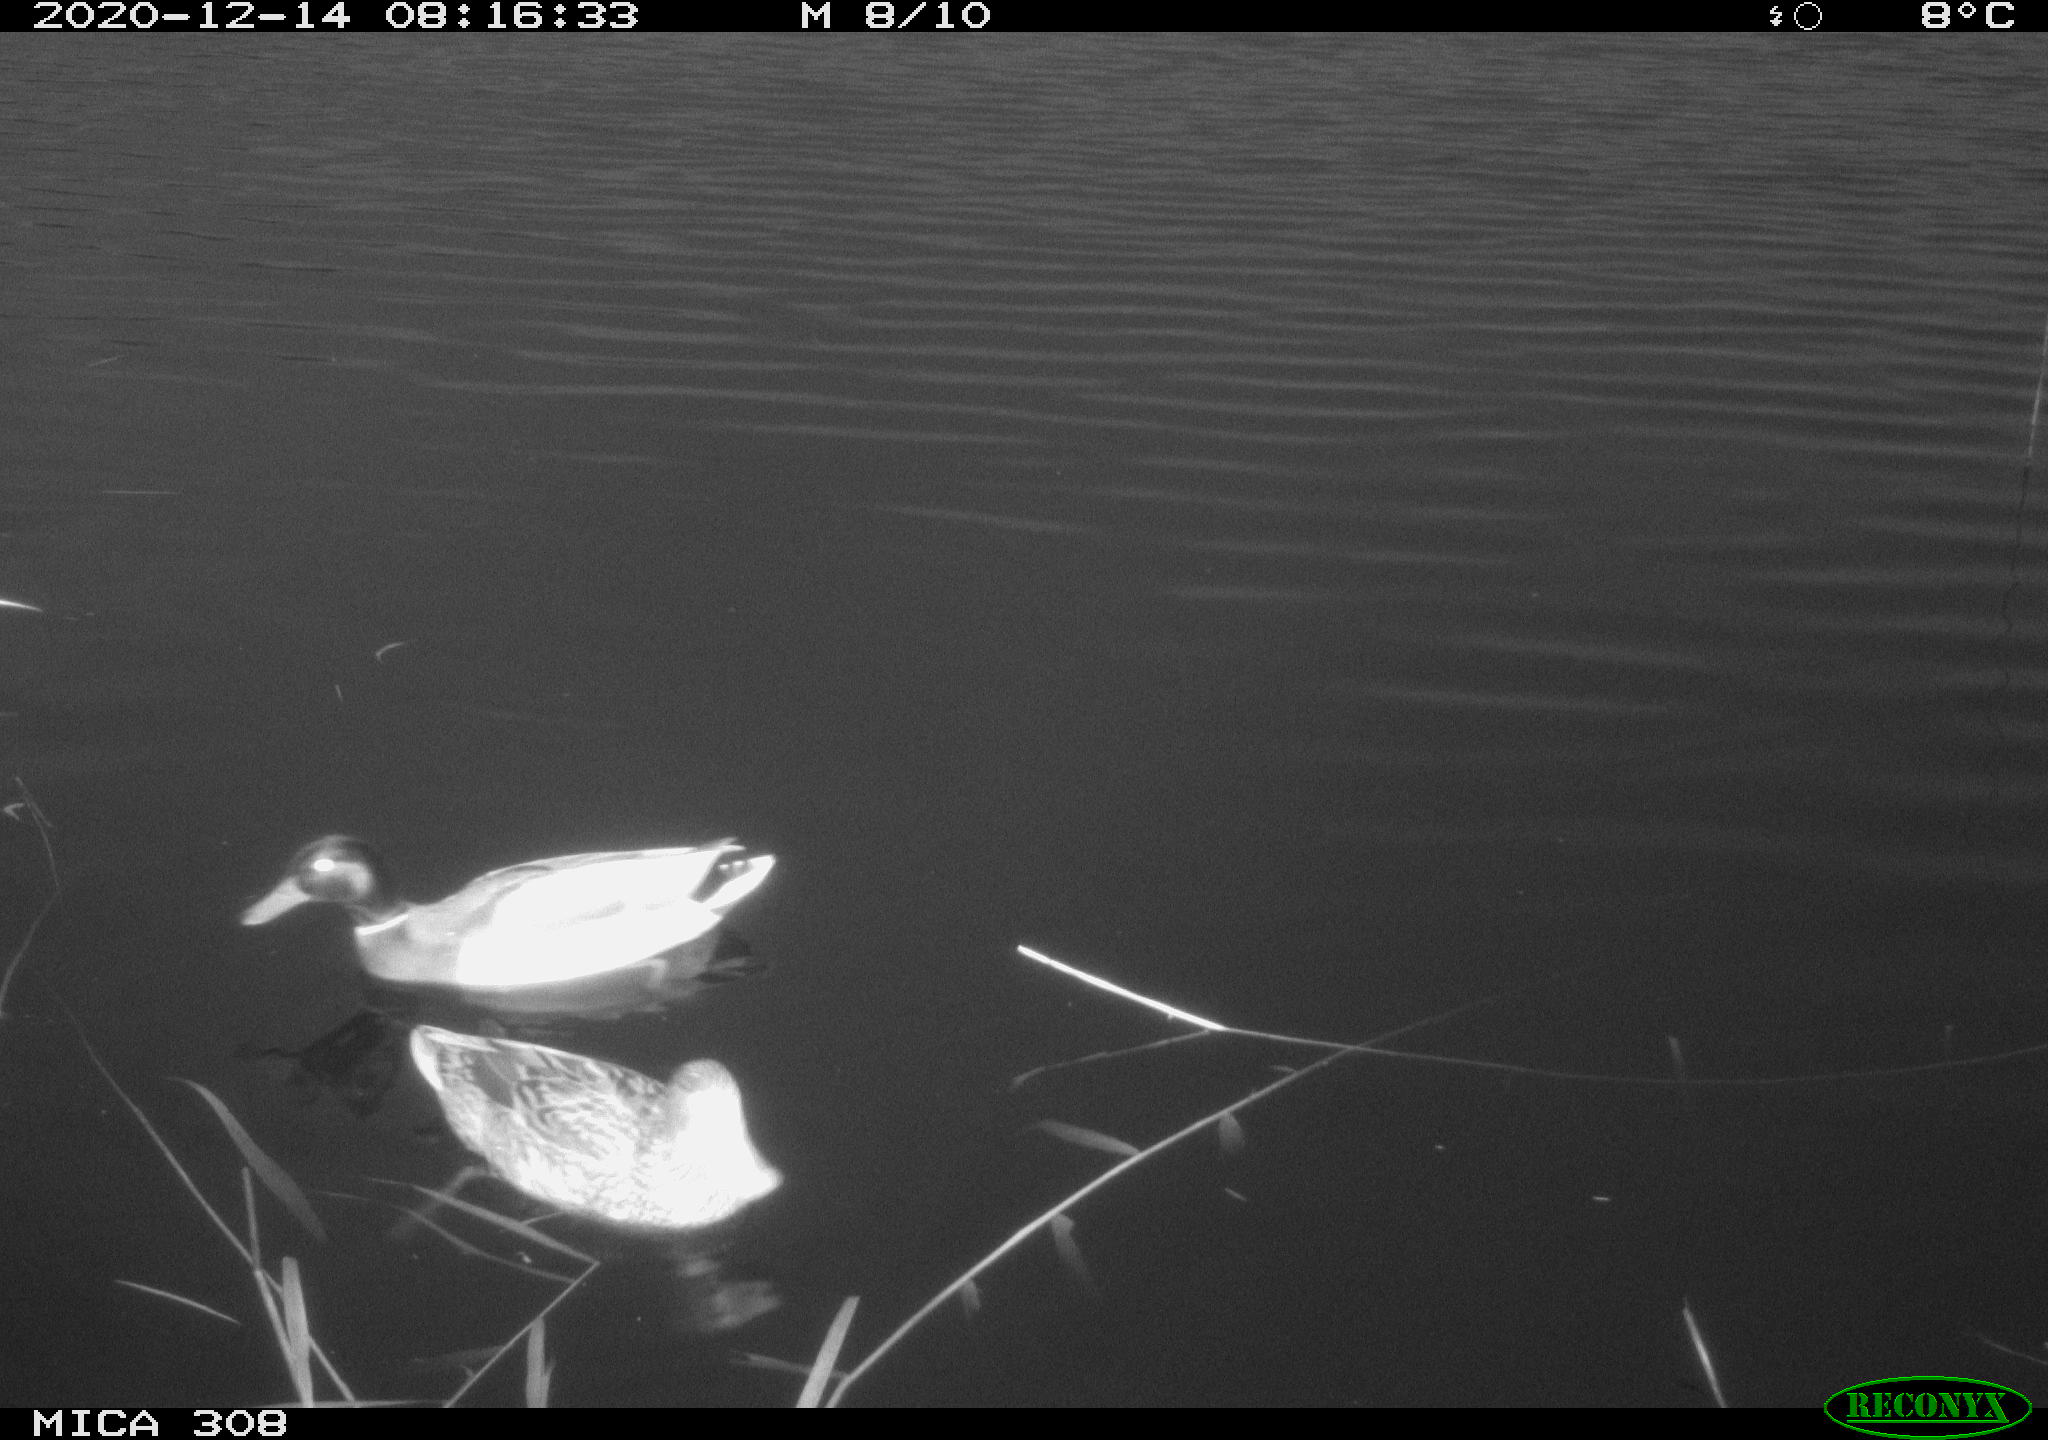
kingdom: Animalia
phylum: Chordata
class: Aves
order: Anseriformes
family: Anatidae
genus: Anas
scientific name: Anas platyrhynchos
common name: Mallard
